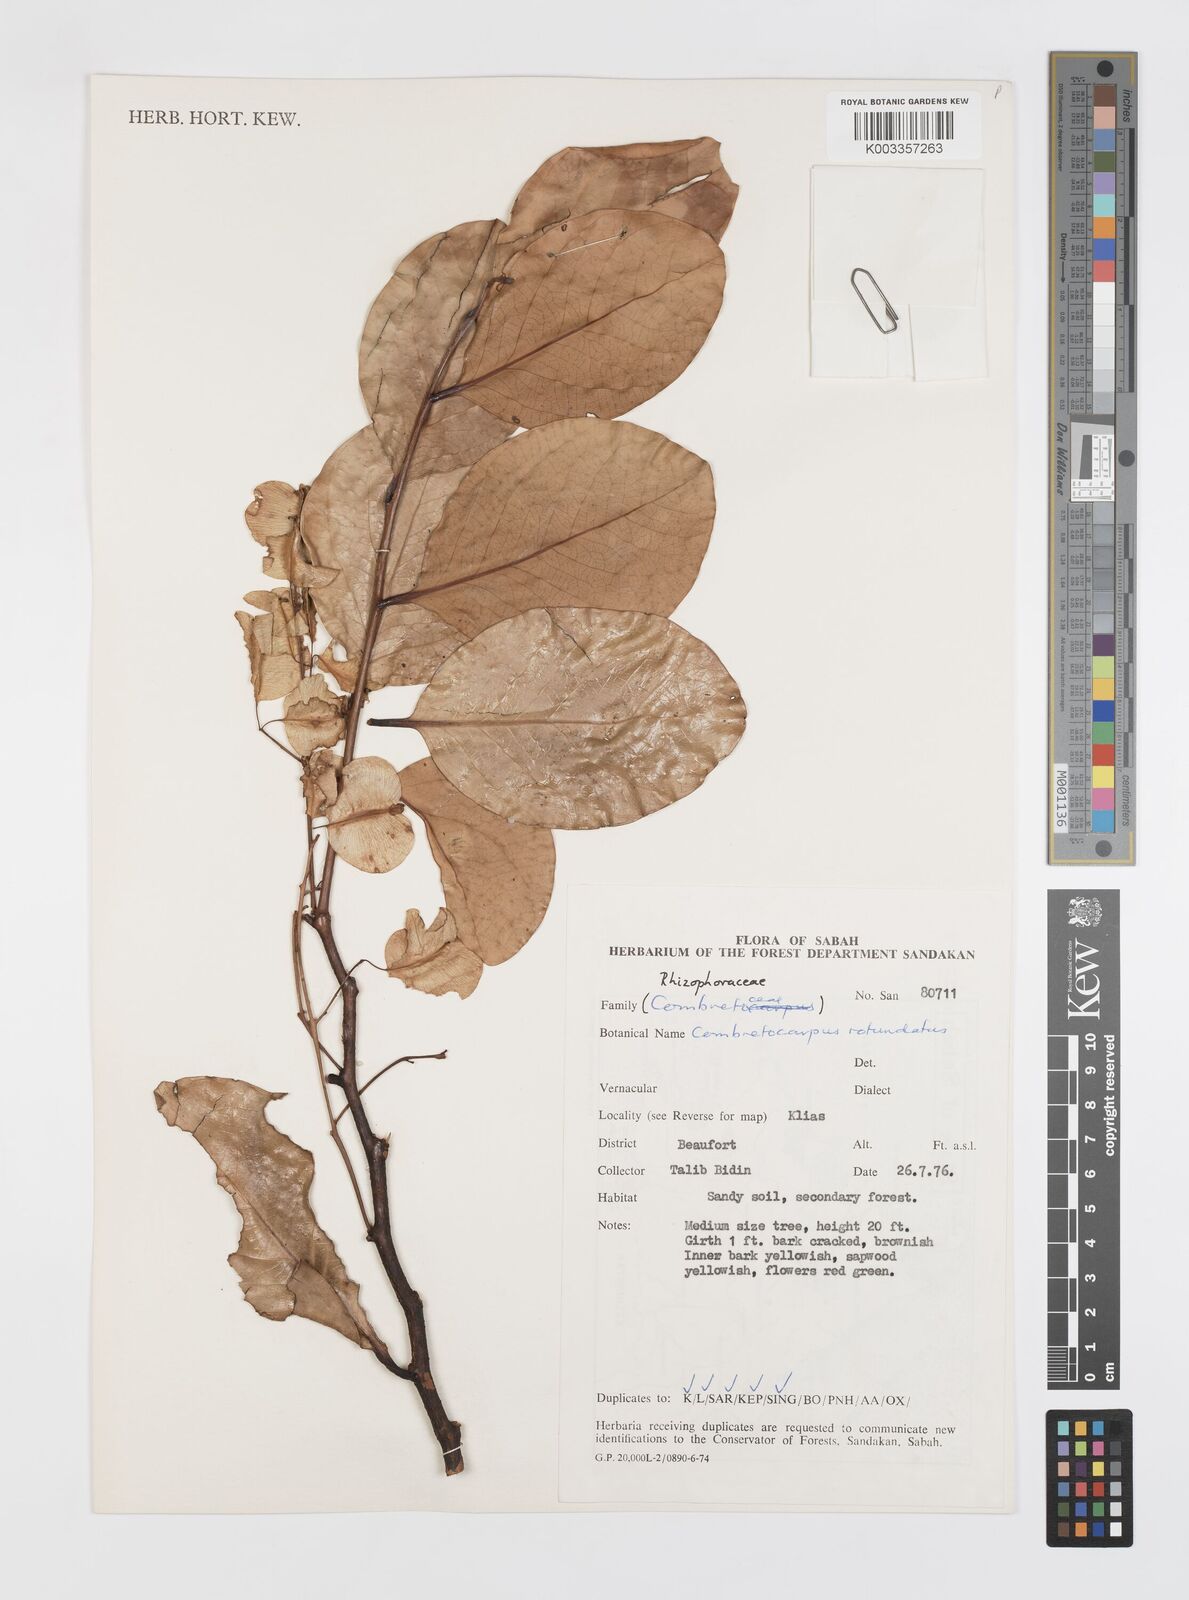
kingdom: Plantae
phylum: Tracheophyta
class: Magnoliopsida
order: Cucurbitales
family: Anisophylleaceae
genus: Combretocarpus
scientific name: Combretocarpus rotundatus
